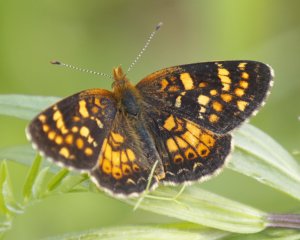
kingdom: Animalia
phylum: Arthropoda
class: Insecta
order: Lepidoptera
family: Nymphalidae
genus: Phyciodes
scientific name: Phyciodes tharos
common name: Field Crescent
